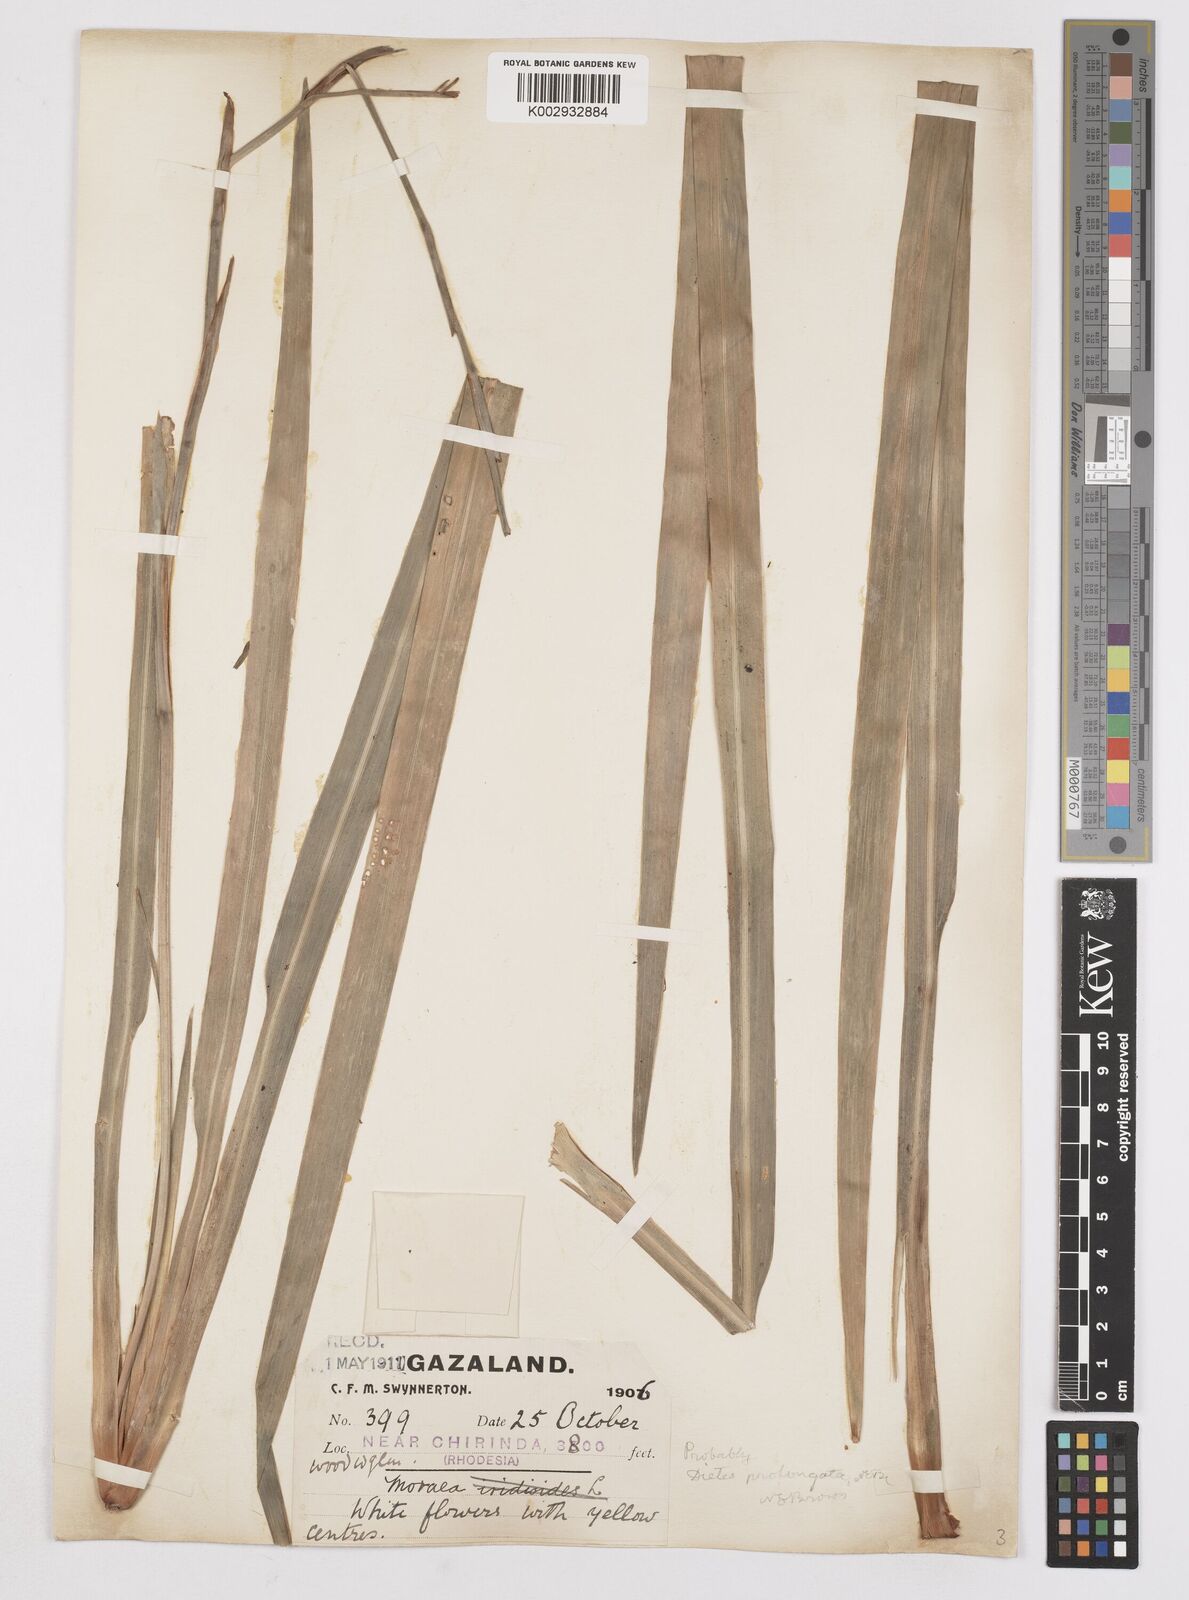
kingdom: Plantae
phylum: Tracheophyta
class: Liliopsida
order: Asparagales
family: Iridaceae
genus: Dietes
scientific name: Dietes iridioides
